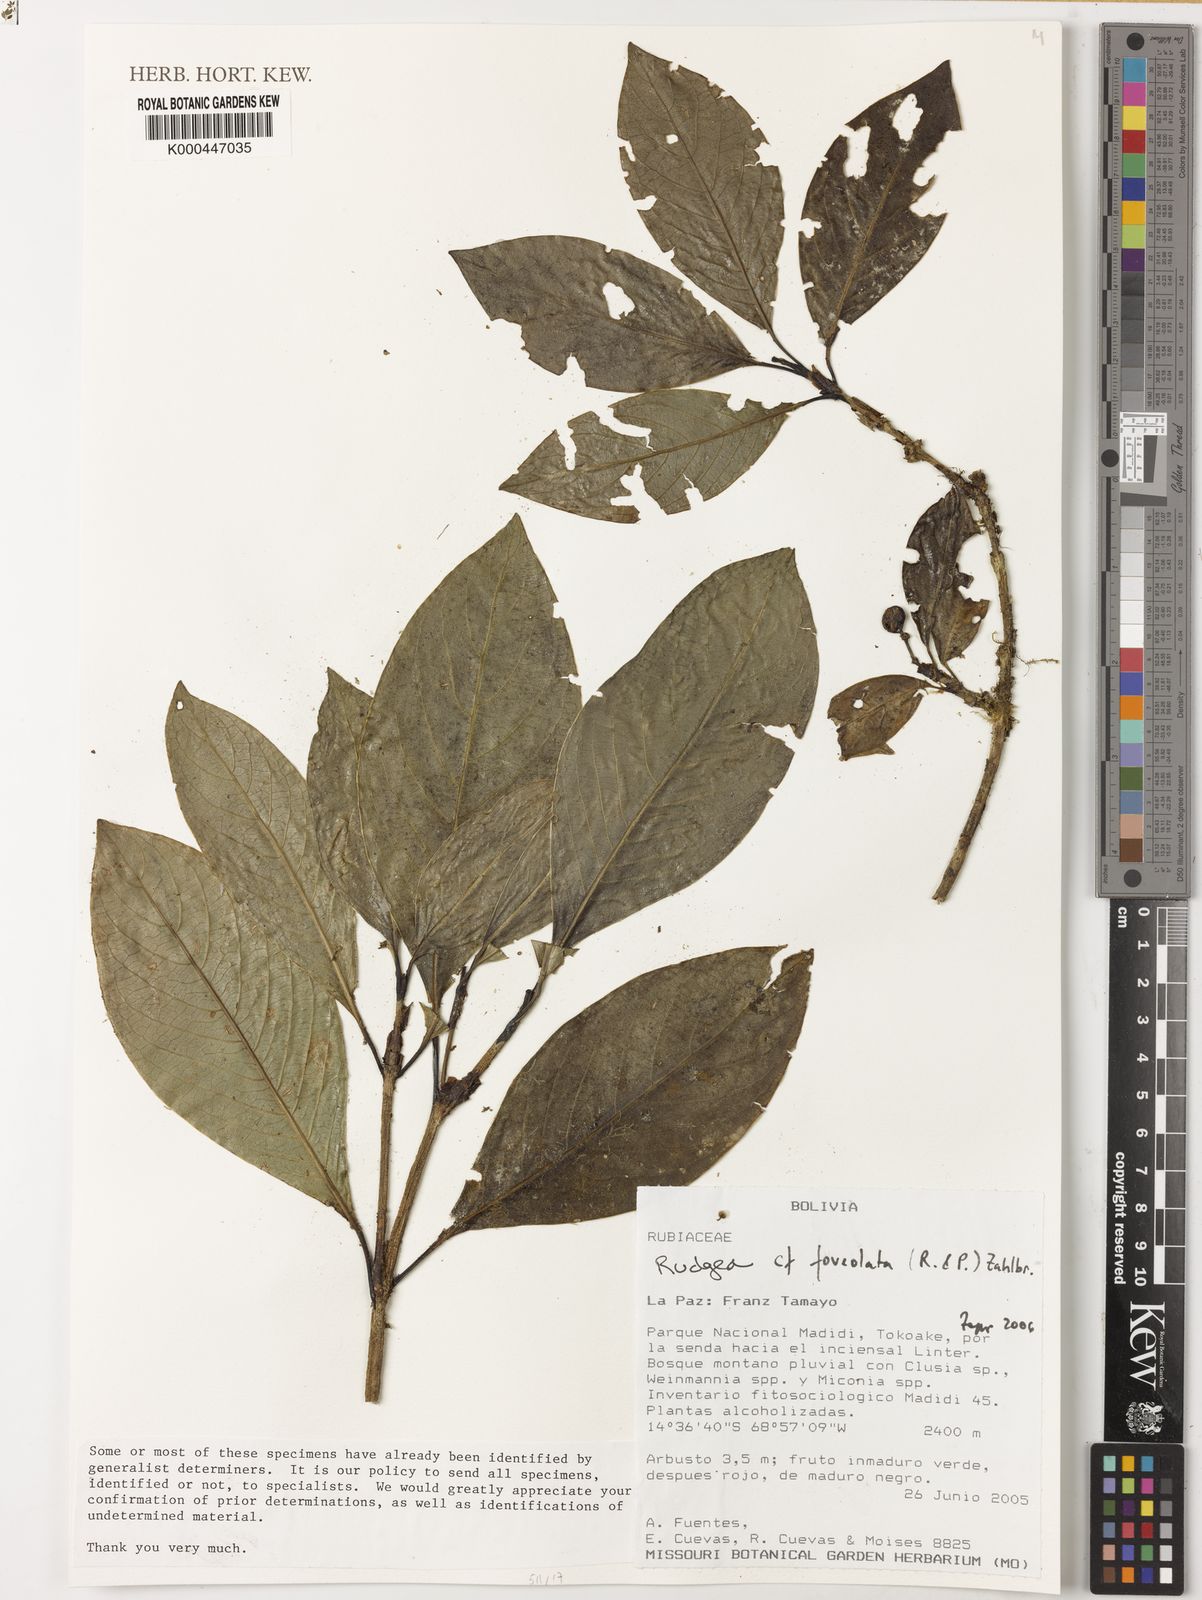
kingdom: Plantae
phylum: Tracheophyta
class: Magnoliopsida
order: Gentianales
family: Rubiaceae
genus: Rudgea
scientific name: Rudgea foveolata
